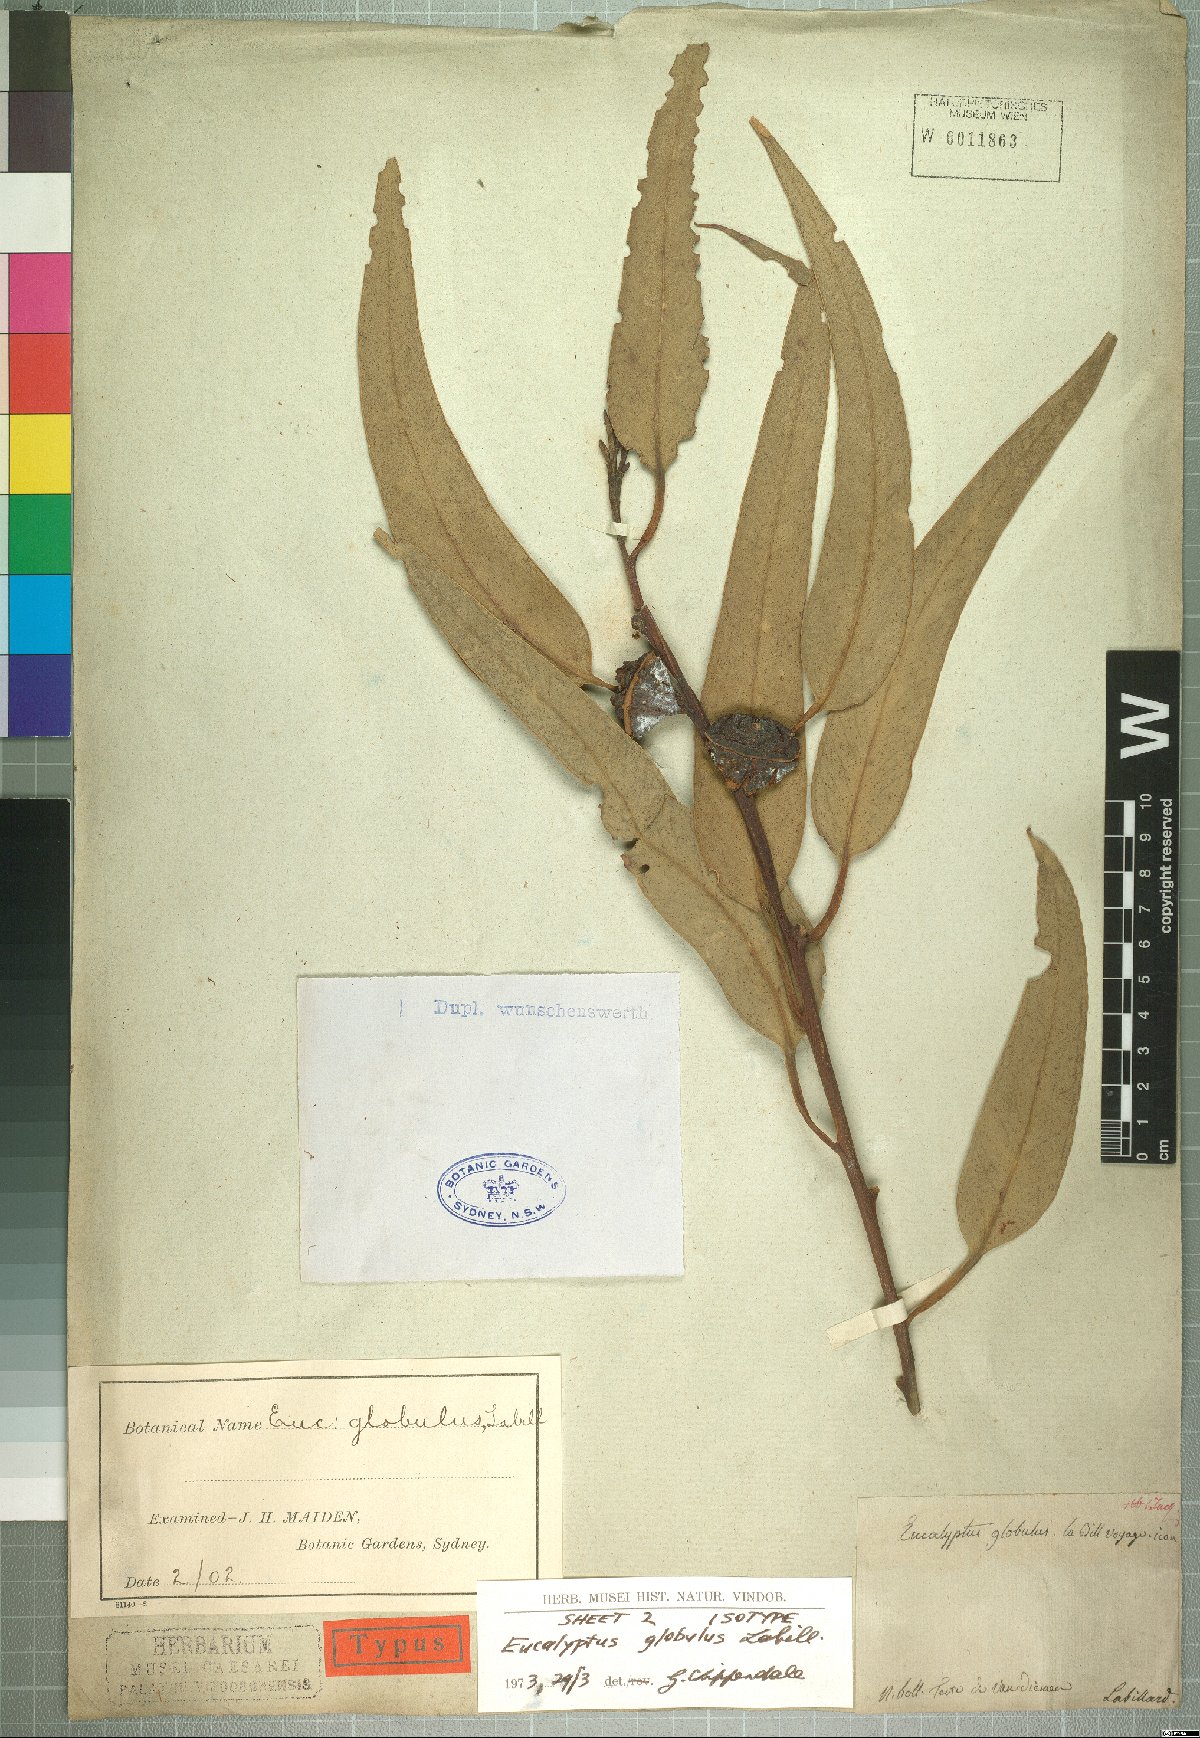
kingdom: Plantae
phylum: Tracheophyta
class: Magnoliopsida
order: Myrtales
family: Myrtaceae
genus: Eucalyptus
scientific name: Eucalyptus globulus
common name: Southern blue-gum
